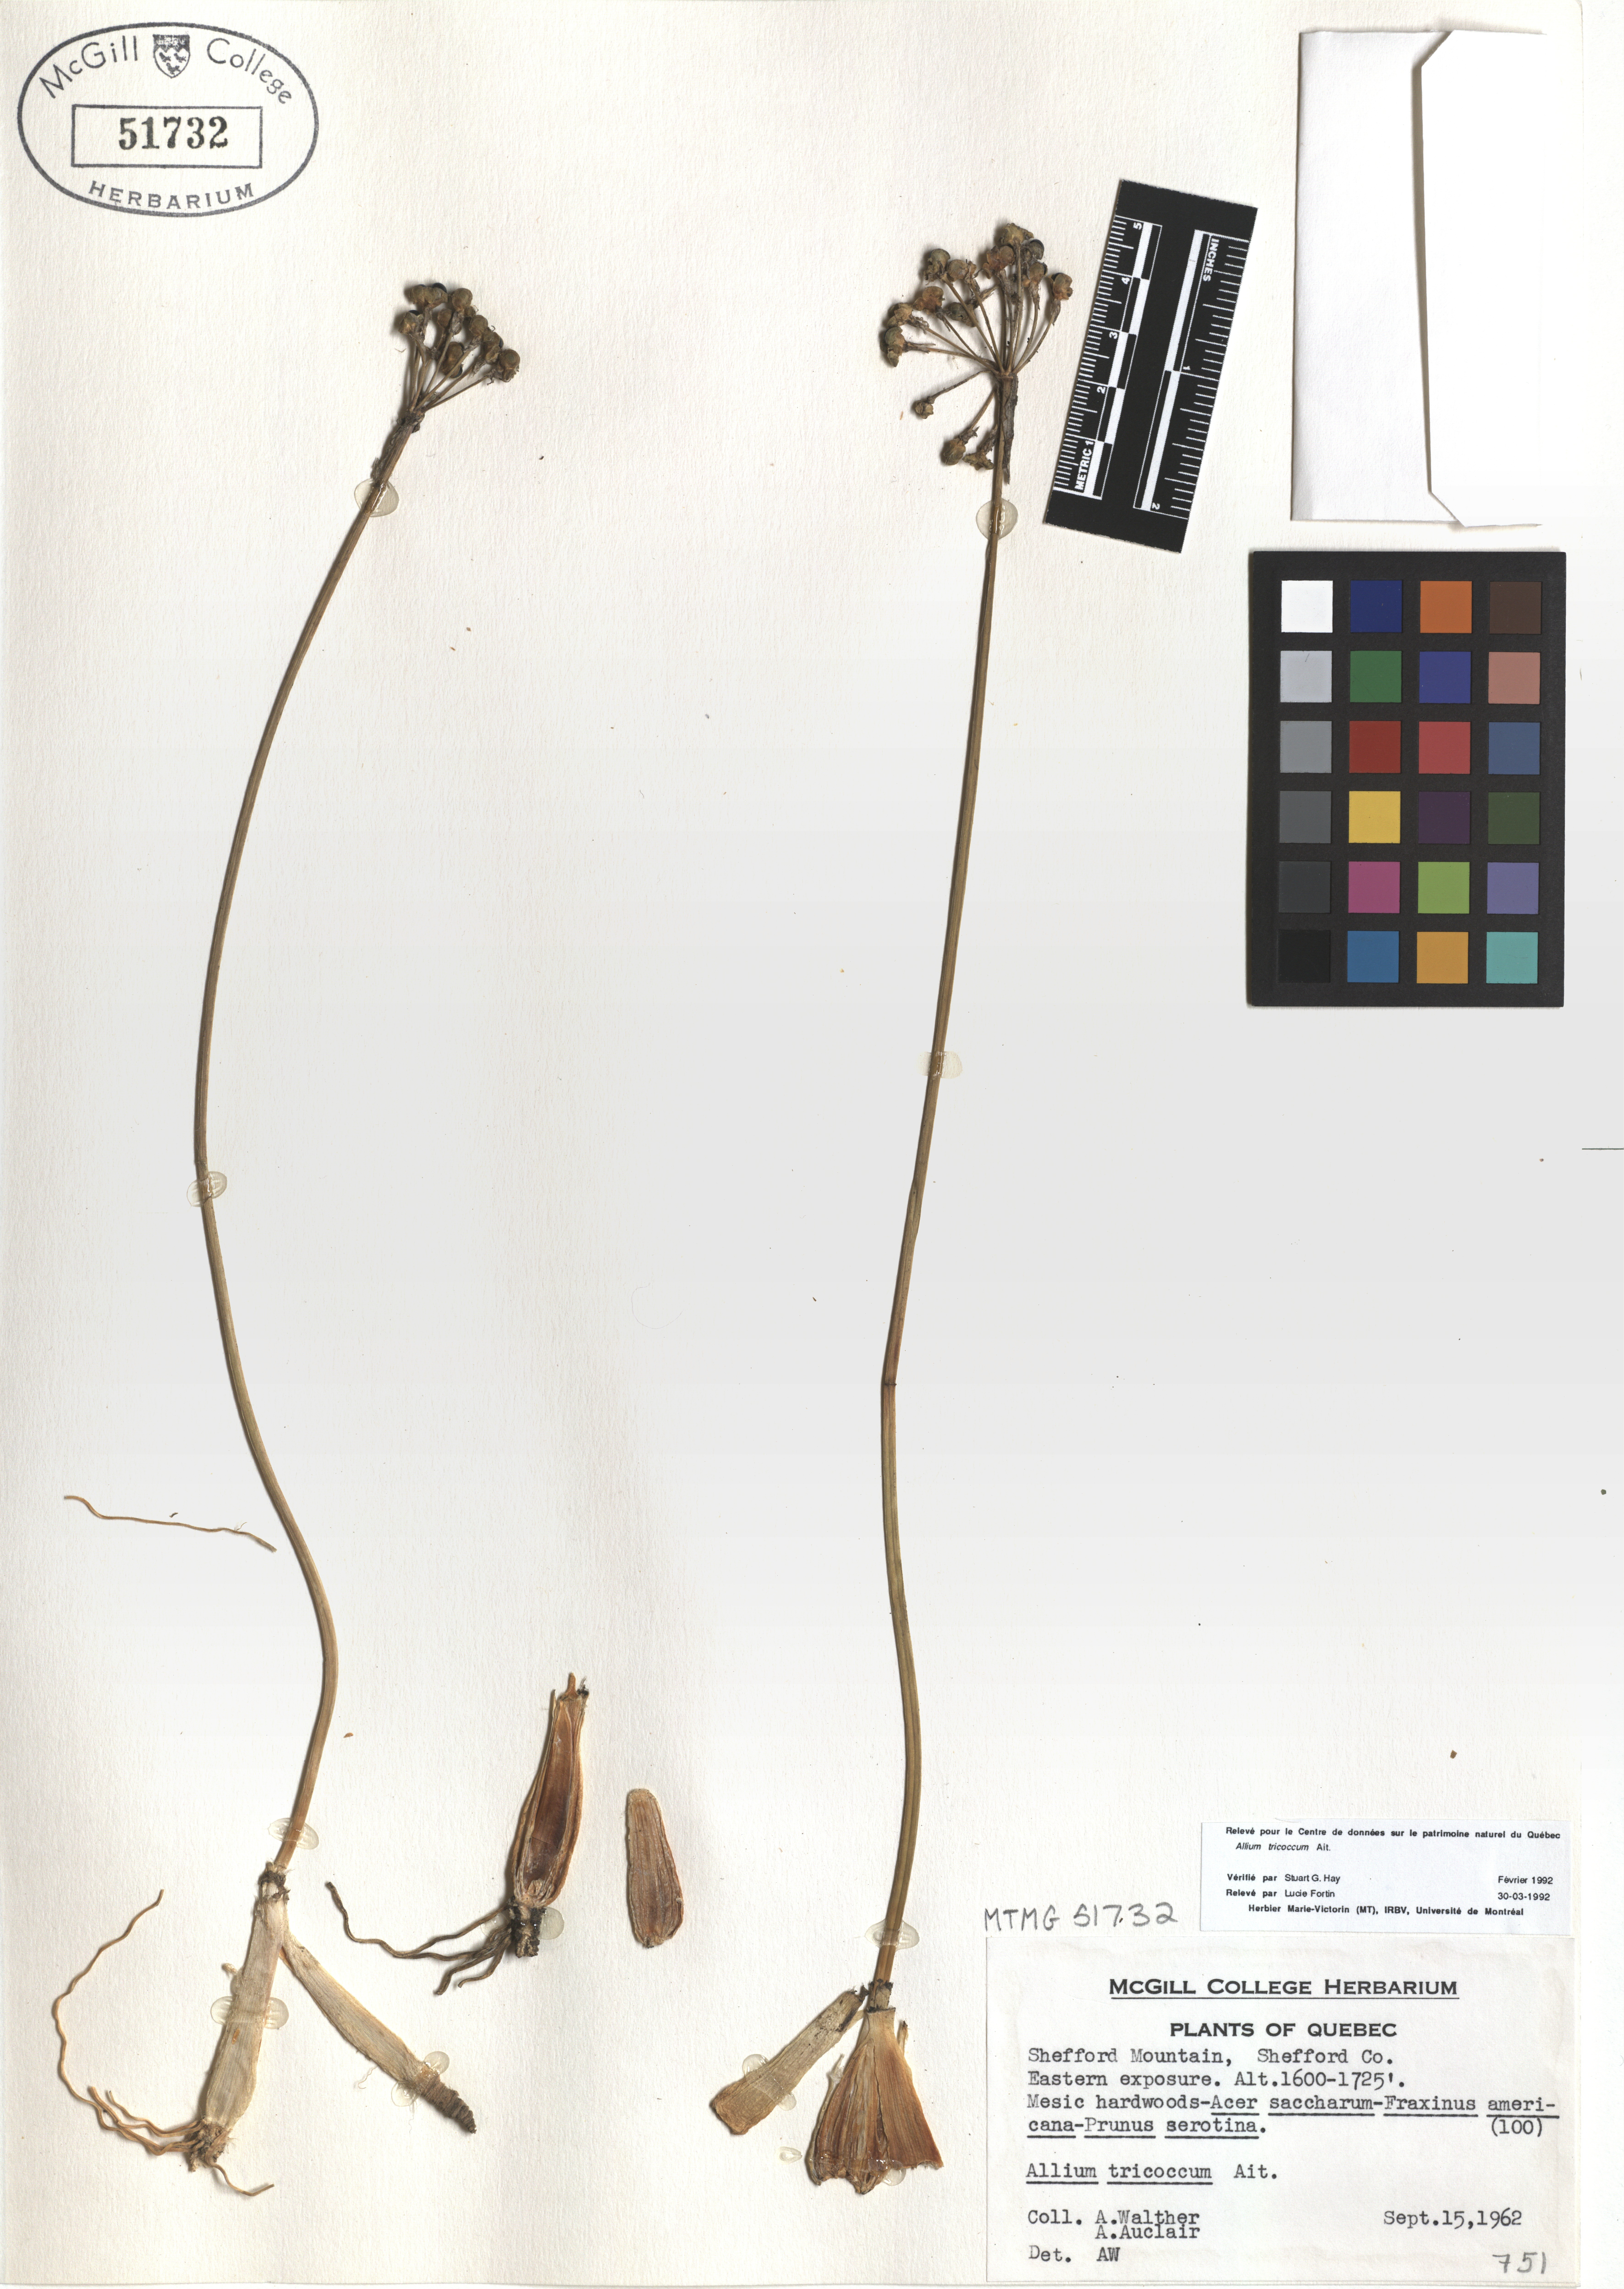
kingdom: Plantae
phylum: Tracheophyta
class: Liliopsida
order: Asparagales
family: Amaryllidaceae
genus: Allium
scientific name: Allium tricoccum
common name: Ramp
